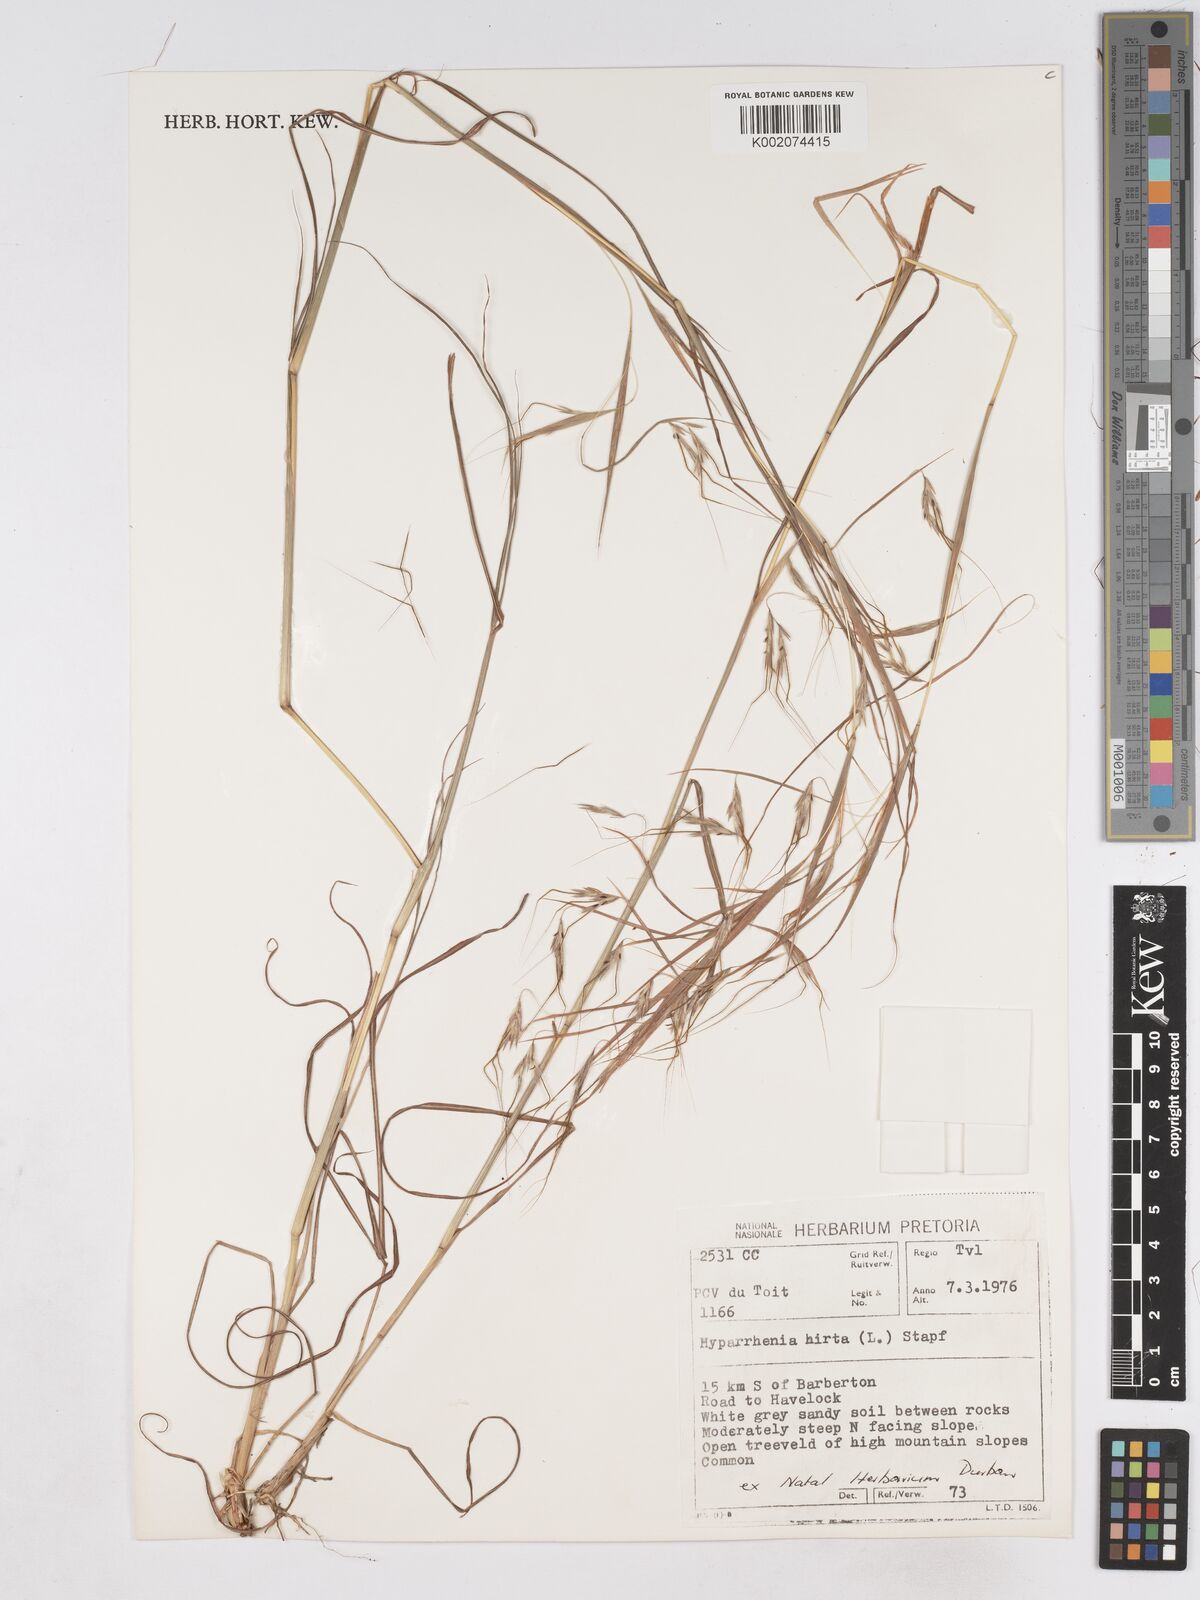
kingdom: Plantae
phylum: Tracheophyta
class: Liliopsida
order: Poales
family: Poaceae
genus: Hyparrhenia
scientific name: Hyparrhenia hirta
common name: Thatching grass
